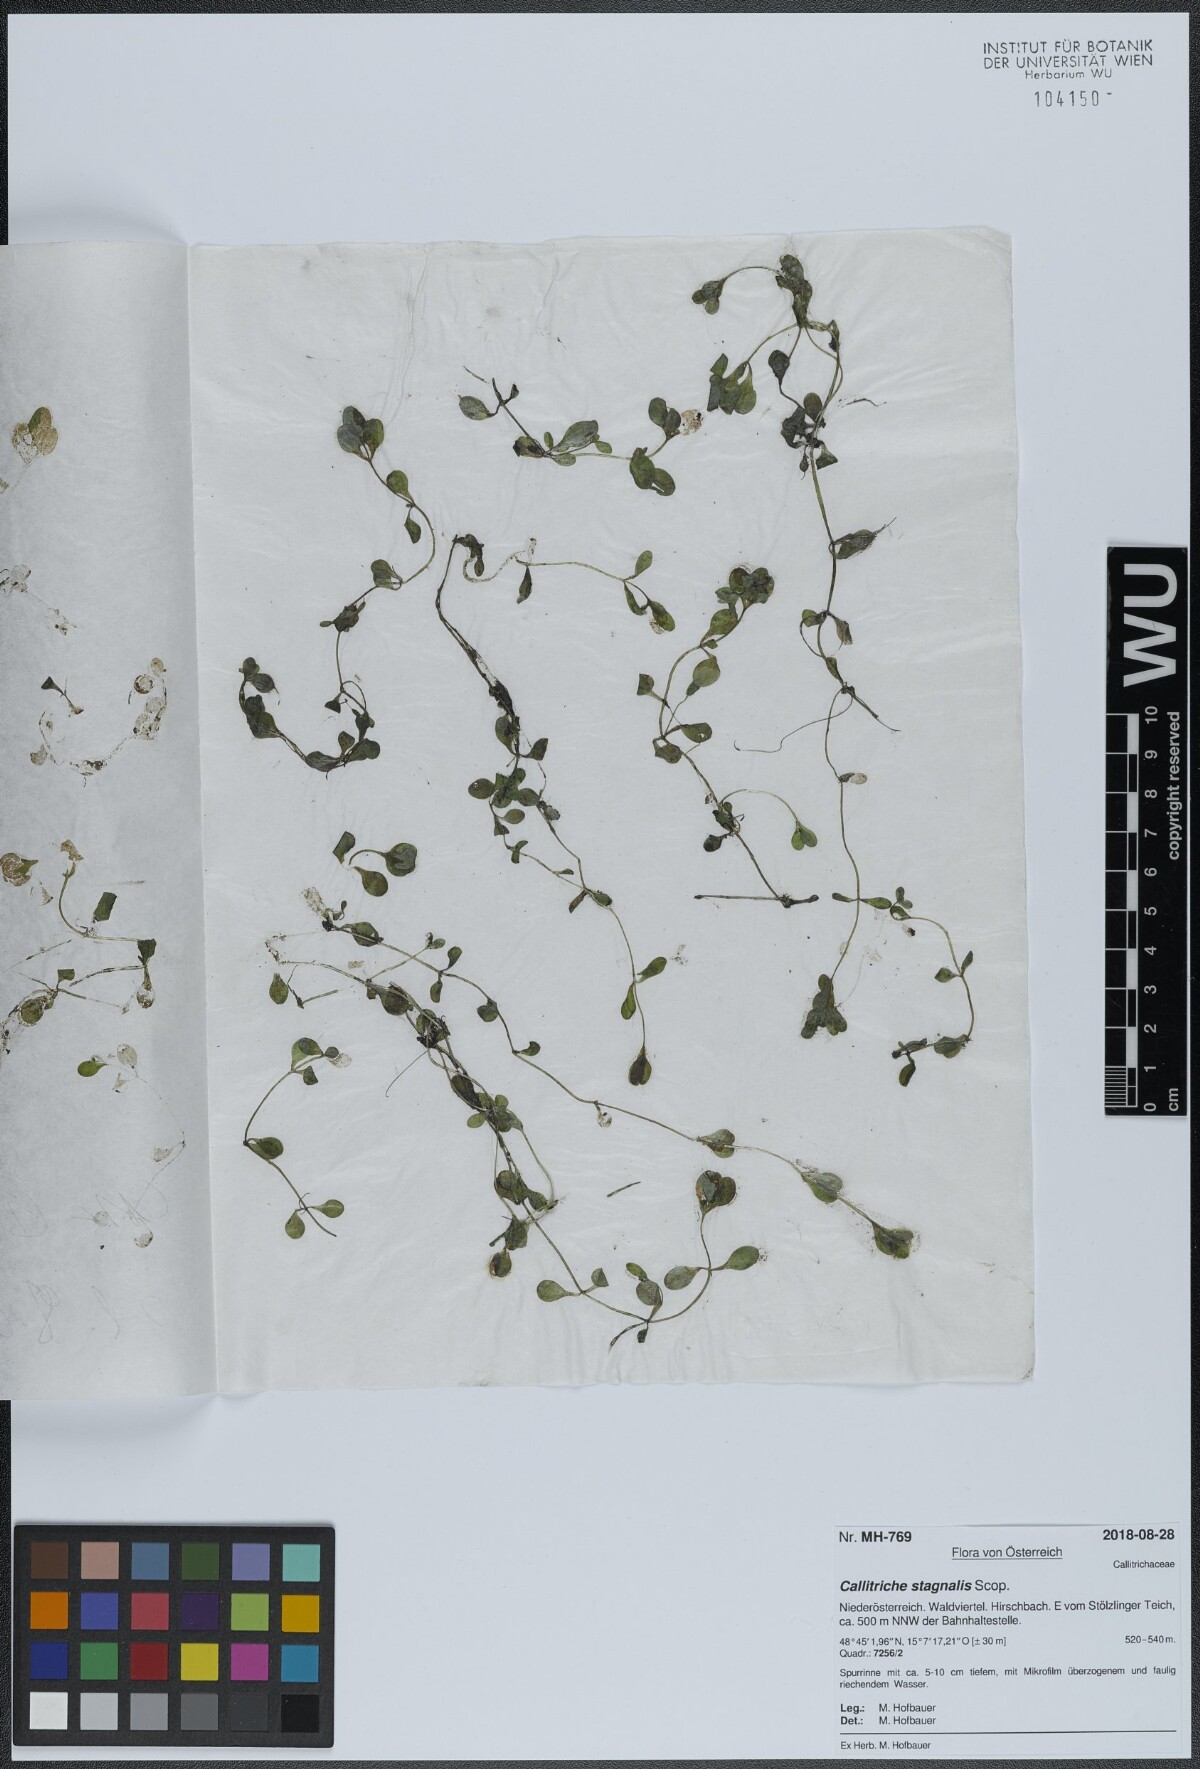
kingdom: Plantae
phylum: Tracheophyta
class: Magnoliopsida
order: Lamiales
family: Plantaginaceae
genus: Callitriche
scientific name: Callitriche stagnalis
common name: Common water-starwort
